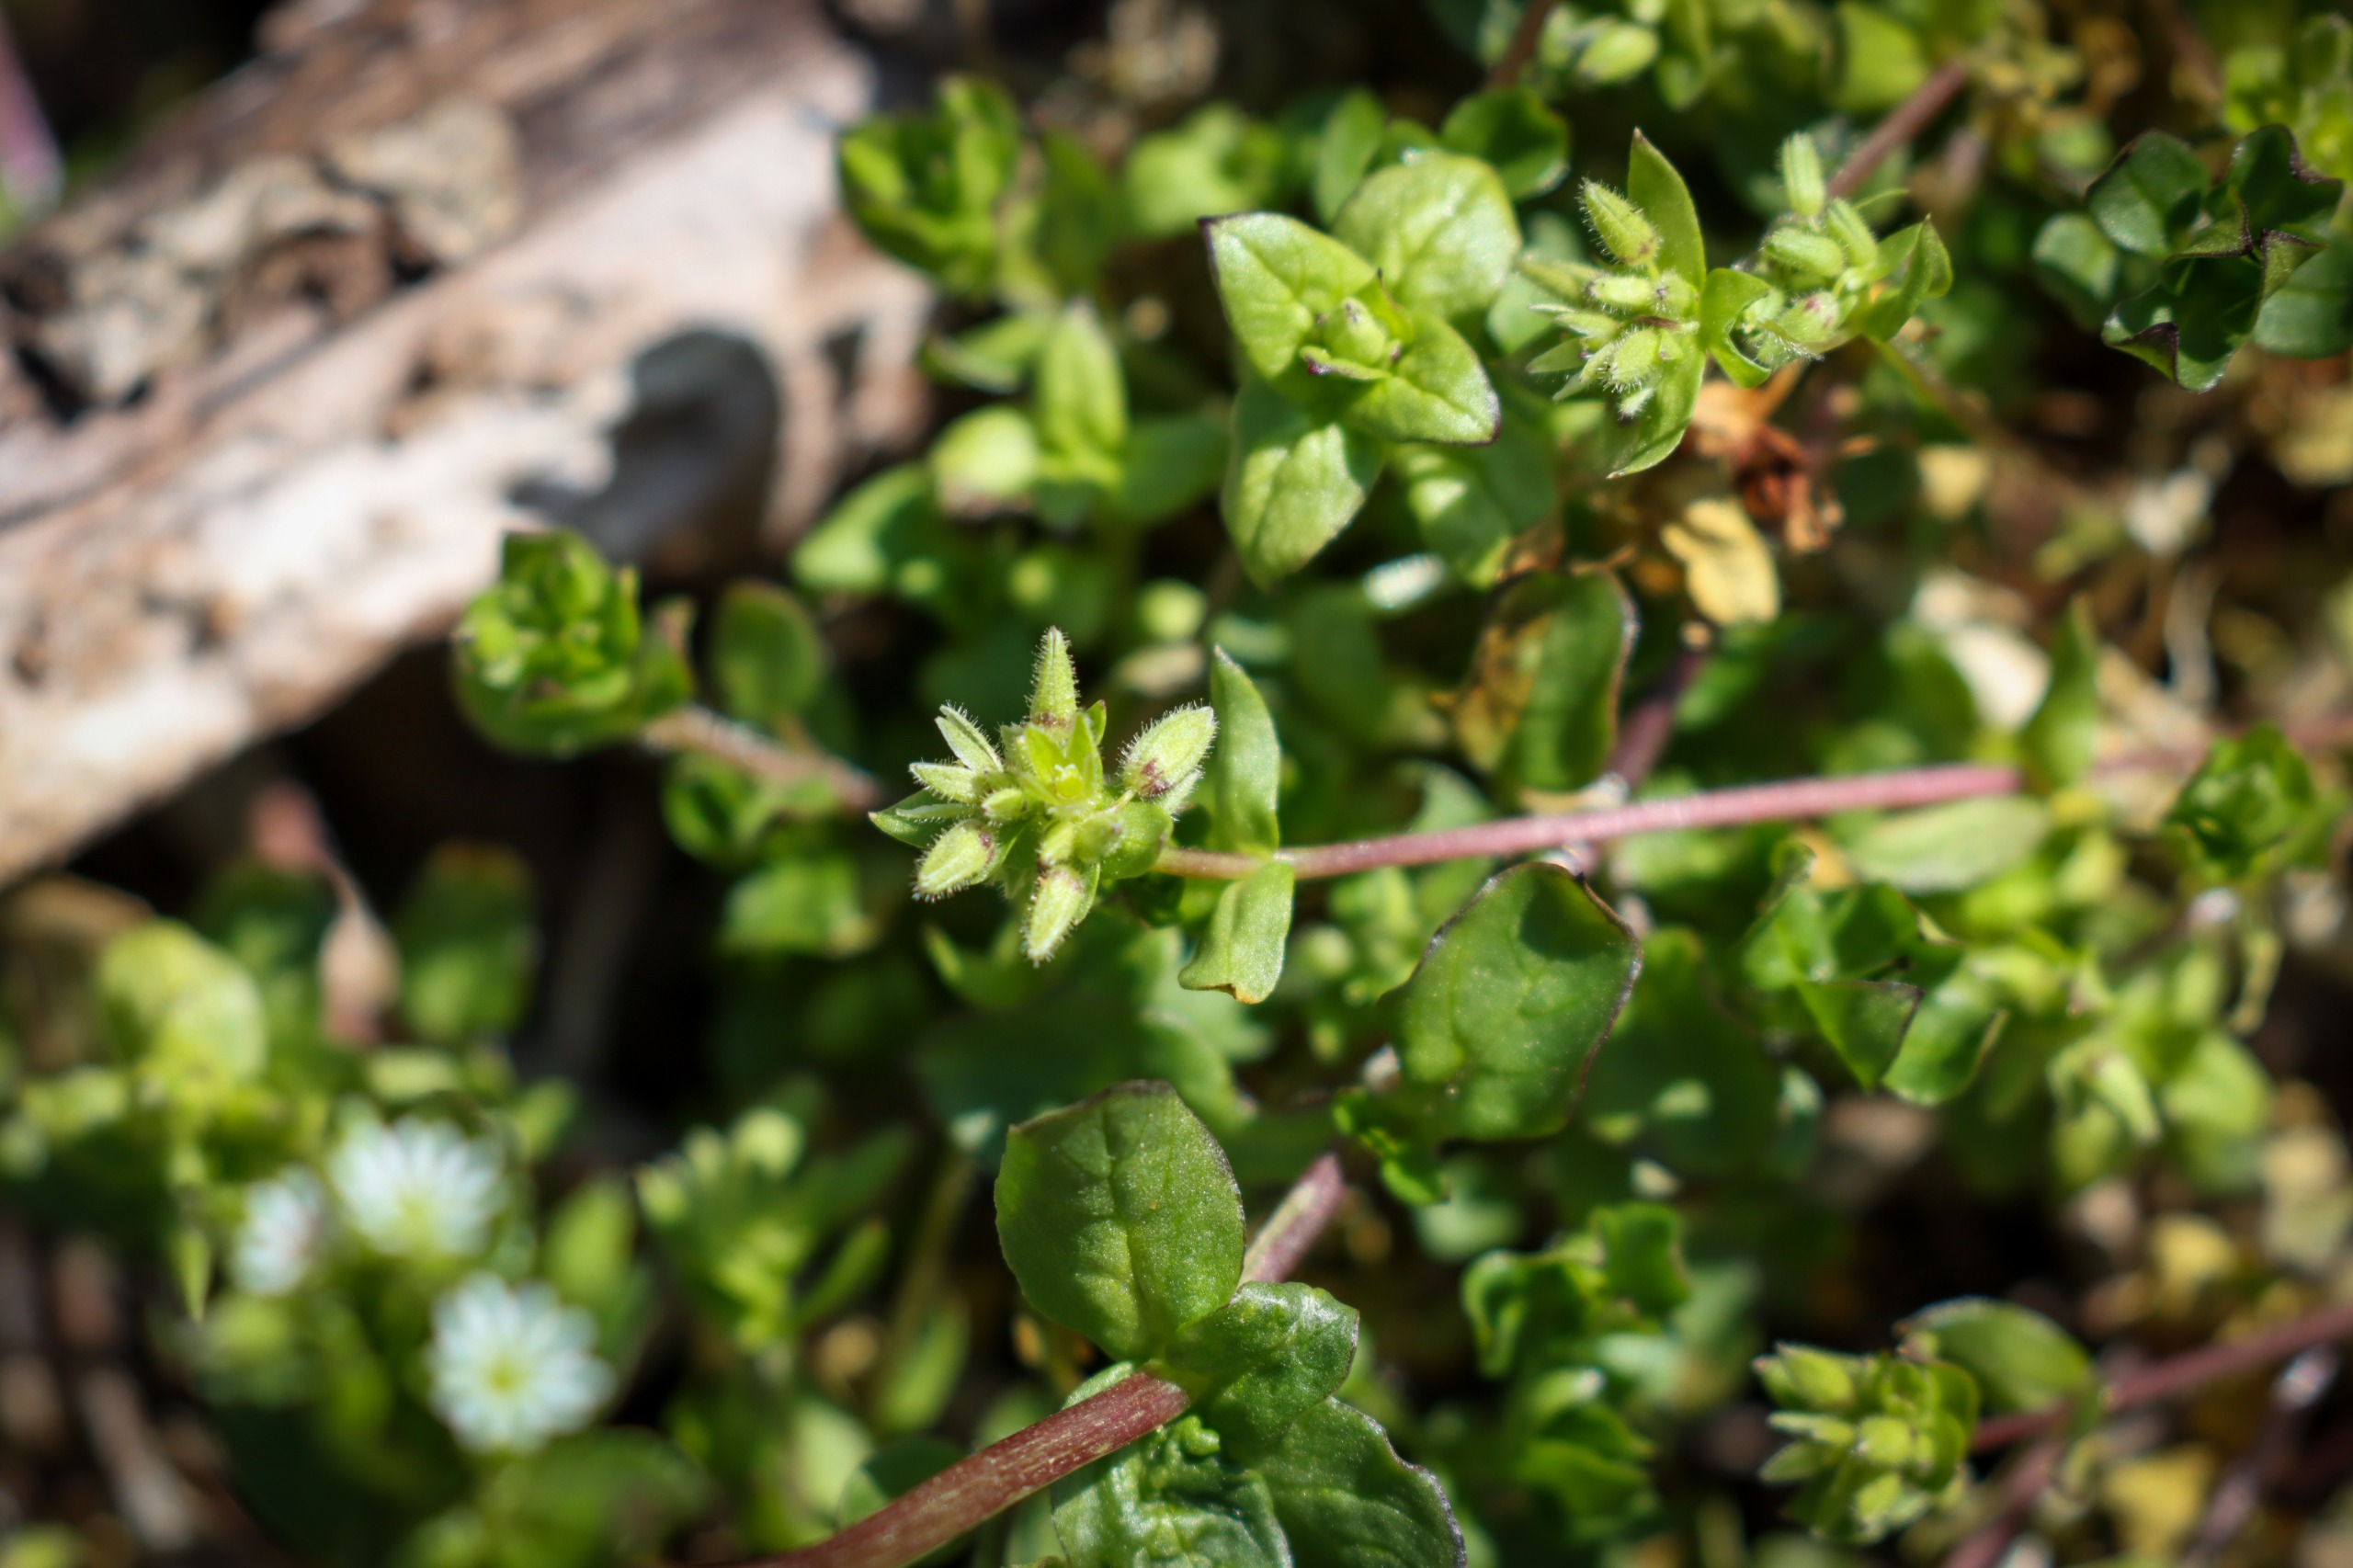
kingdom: Plantae
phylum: Tracheophyta
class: Magnoliopsida
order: Caryophyllales
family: Caryophyllaceae
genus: Stellaria
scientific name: Stellaria media
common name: Almindelig fuglegræs
